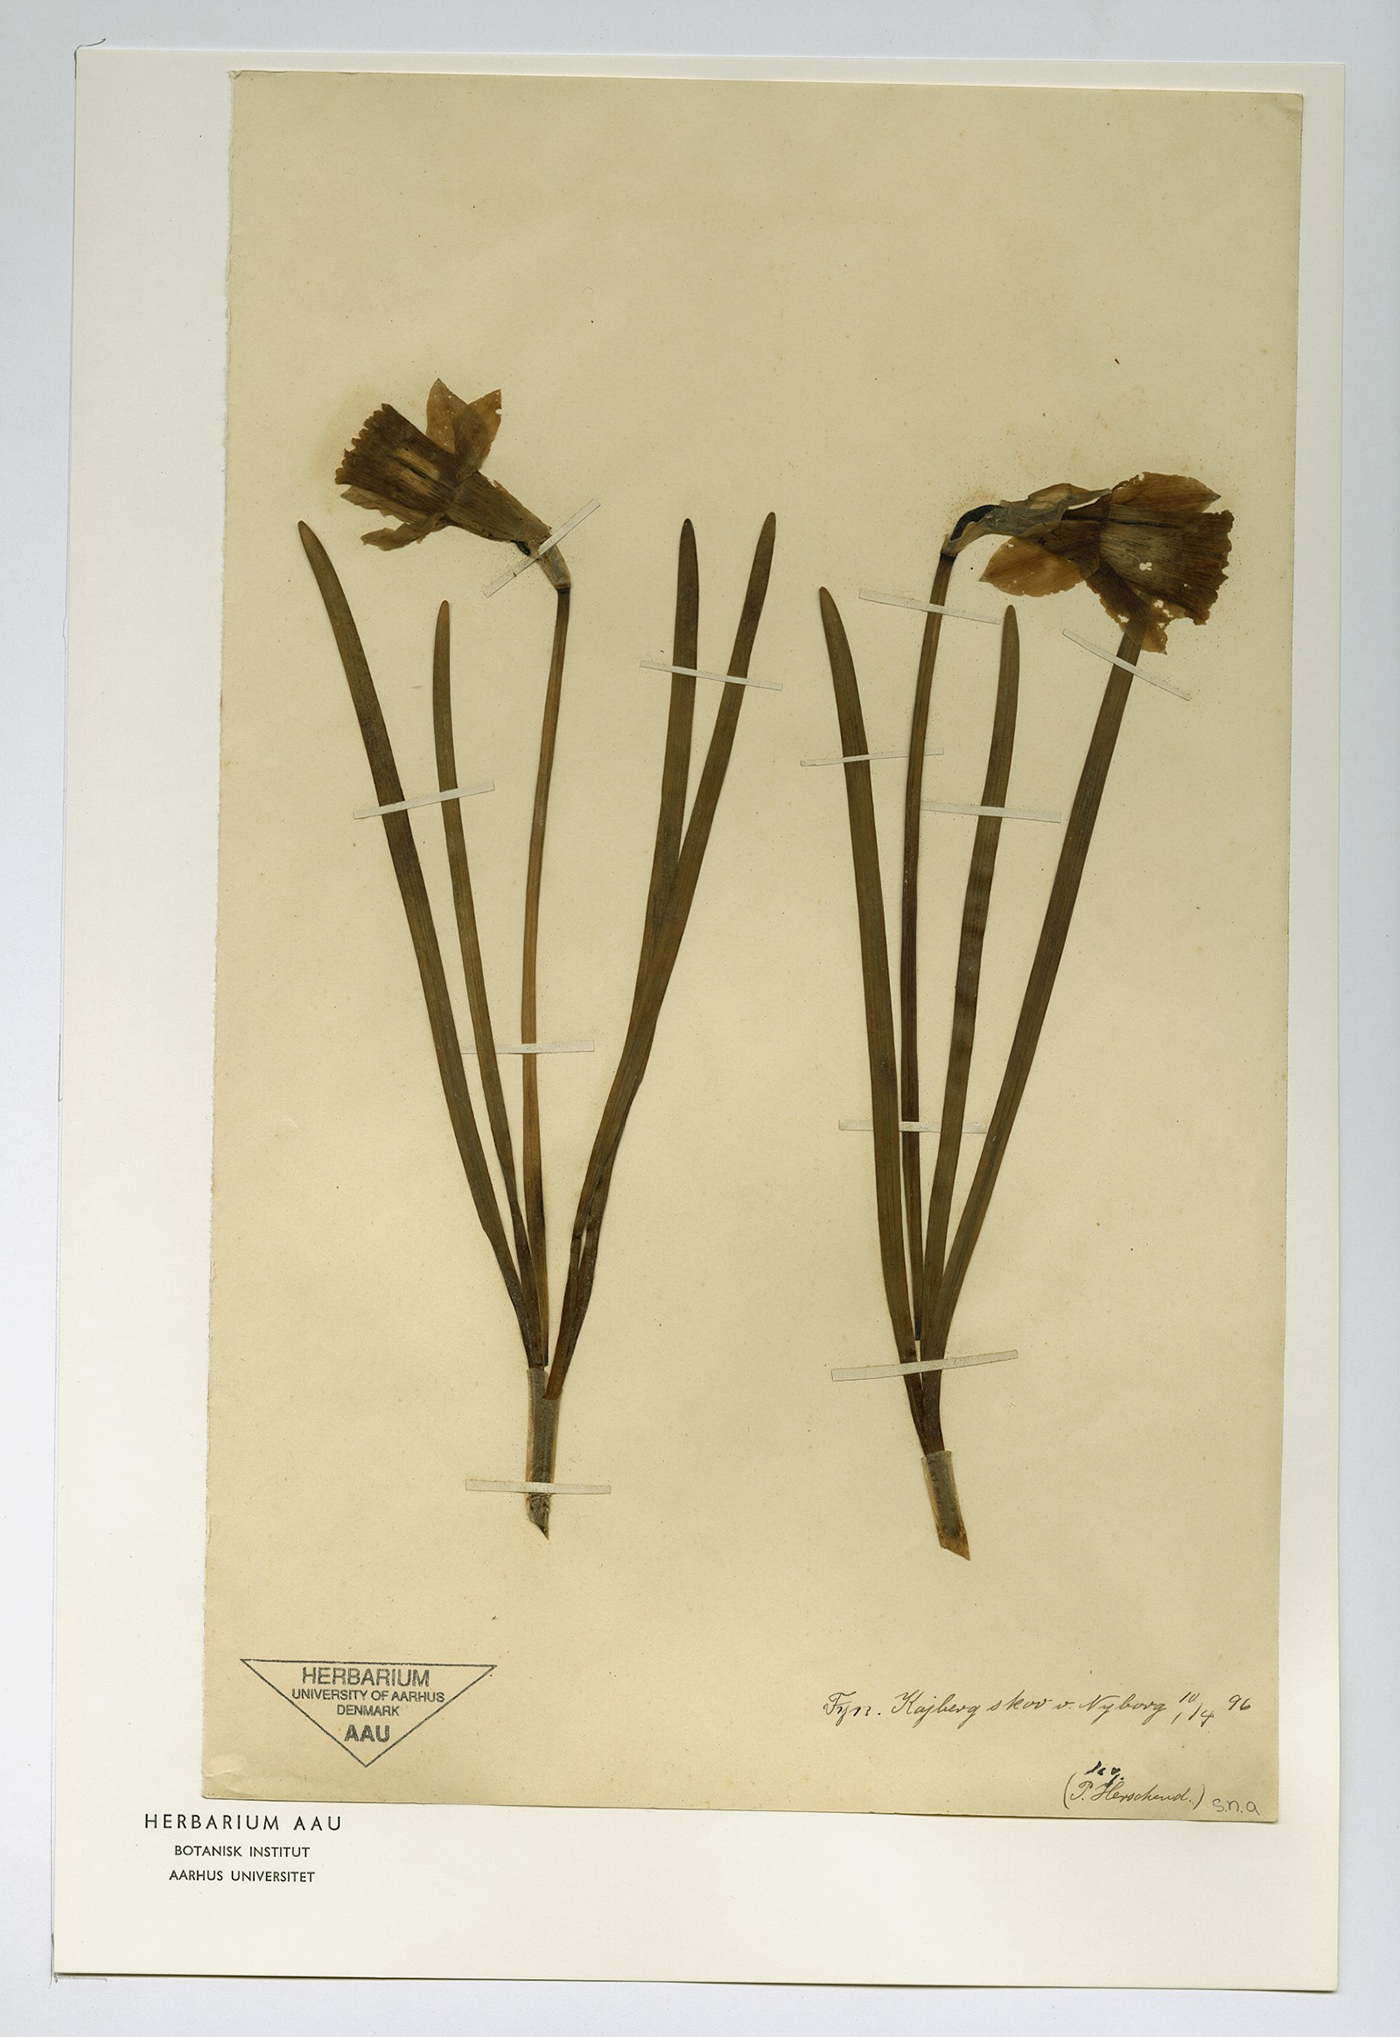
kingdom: Plantae
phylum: Tracheophyta
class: Liliopsida
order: Asparagales
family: Amaryllidaceae
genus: Narcissus
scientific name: Narcissus pseudonarcissus
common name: Daffodil
